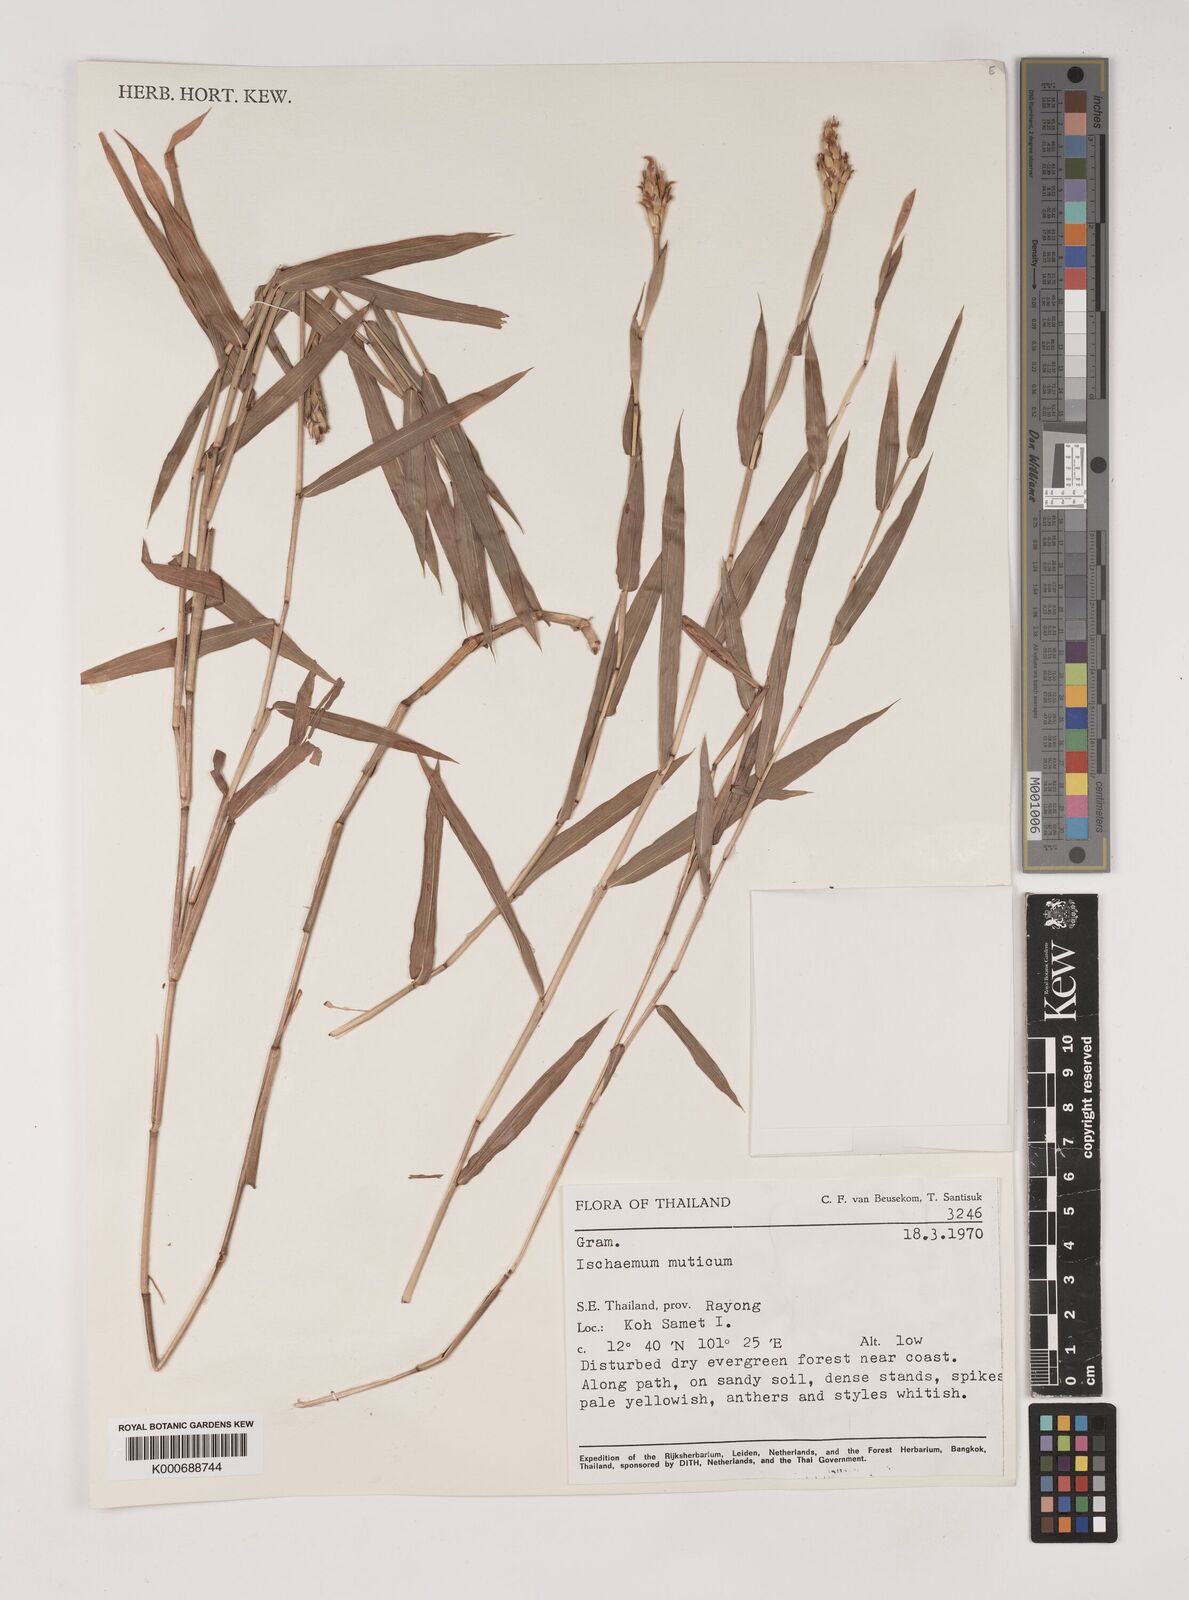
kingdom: Plantae
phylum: Tracheophyta
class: Liliopsida
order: Poales
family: Poaceae
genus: Ischaemum
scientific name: Ischaemum muticum
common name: Drought grass
